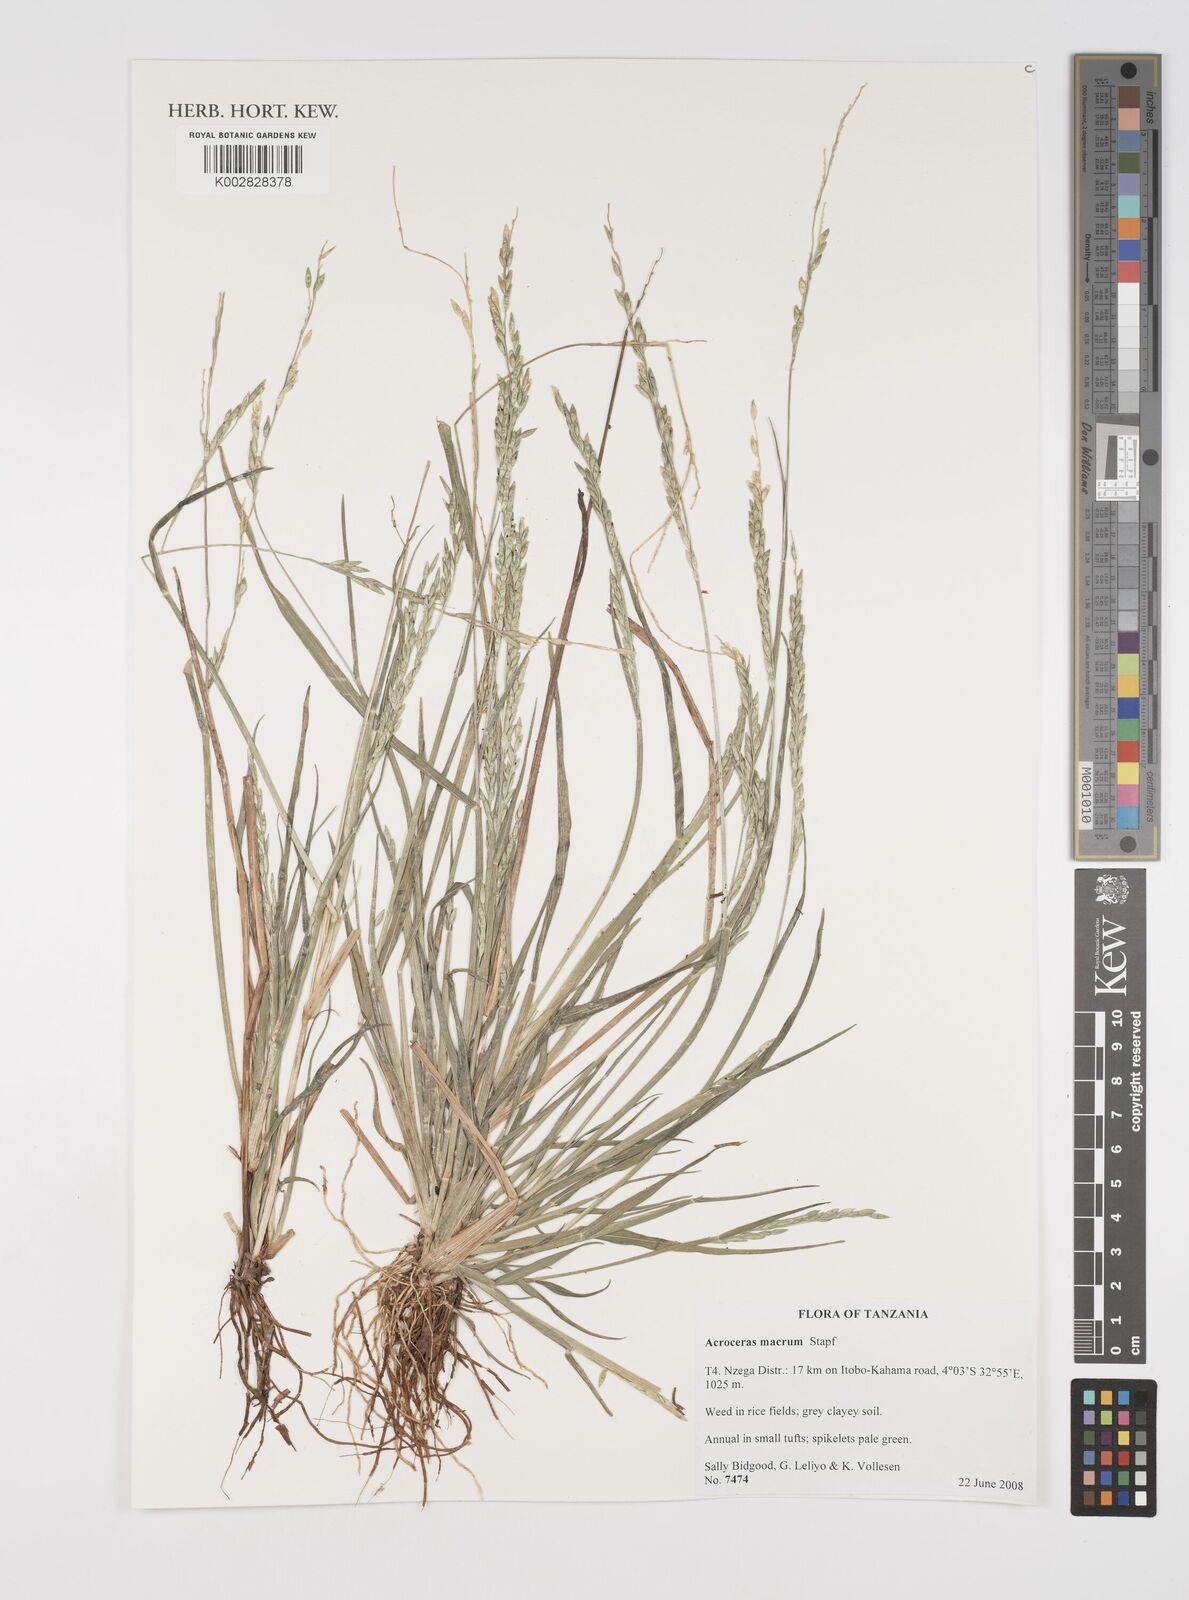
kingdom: Plantae
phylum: Tracheophyta
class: Liliopsida
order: Poales
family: Poaceae
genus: Acroceras
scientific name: Acroceras macrum
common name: Nyl grass
